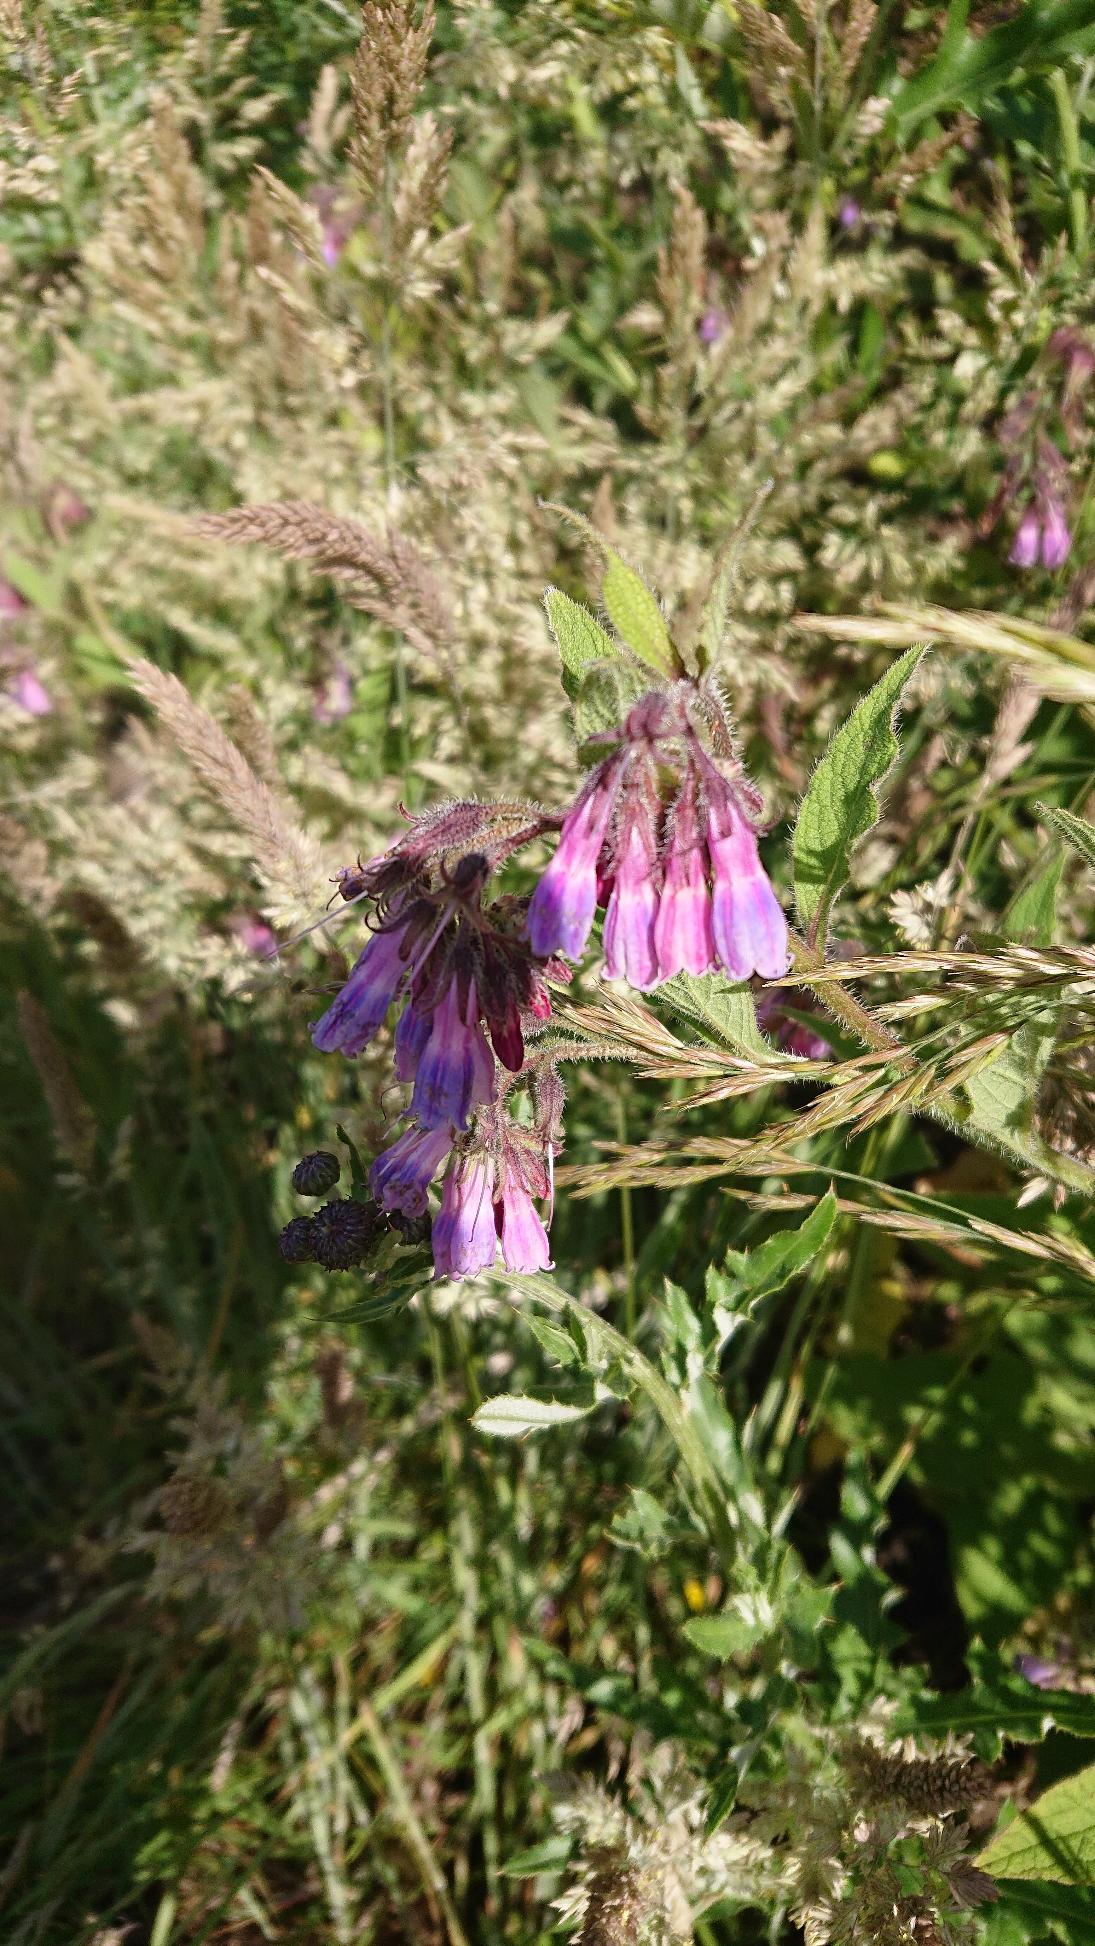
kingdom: Plantae
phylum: Tracheophyta
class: Magnoliopsida
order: Boraginales
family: Boraginaceae
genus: Symphytum
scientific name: Symphytum uplandicum
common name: Foder-kulsukker
